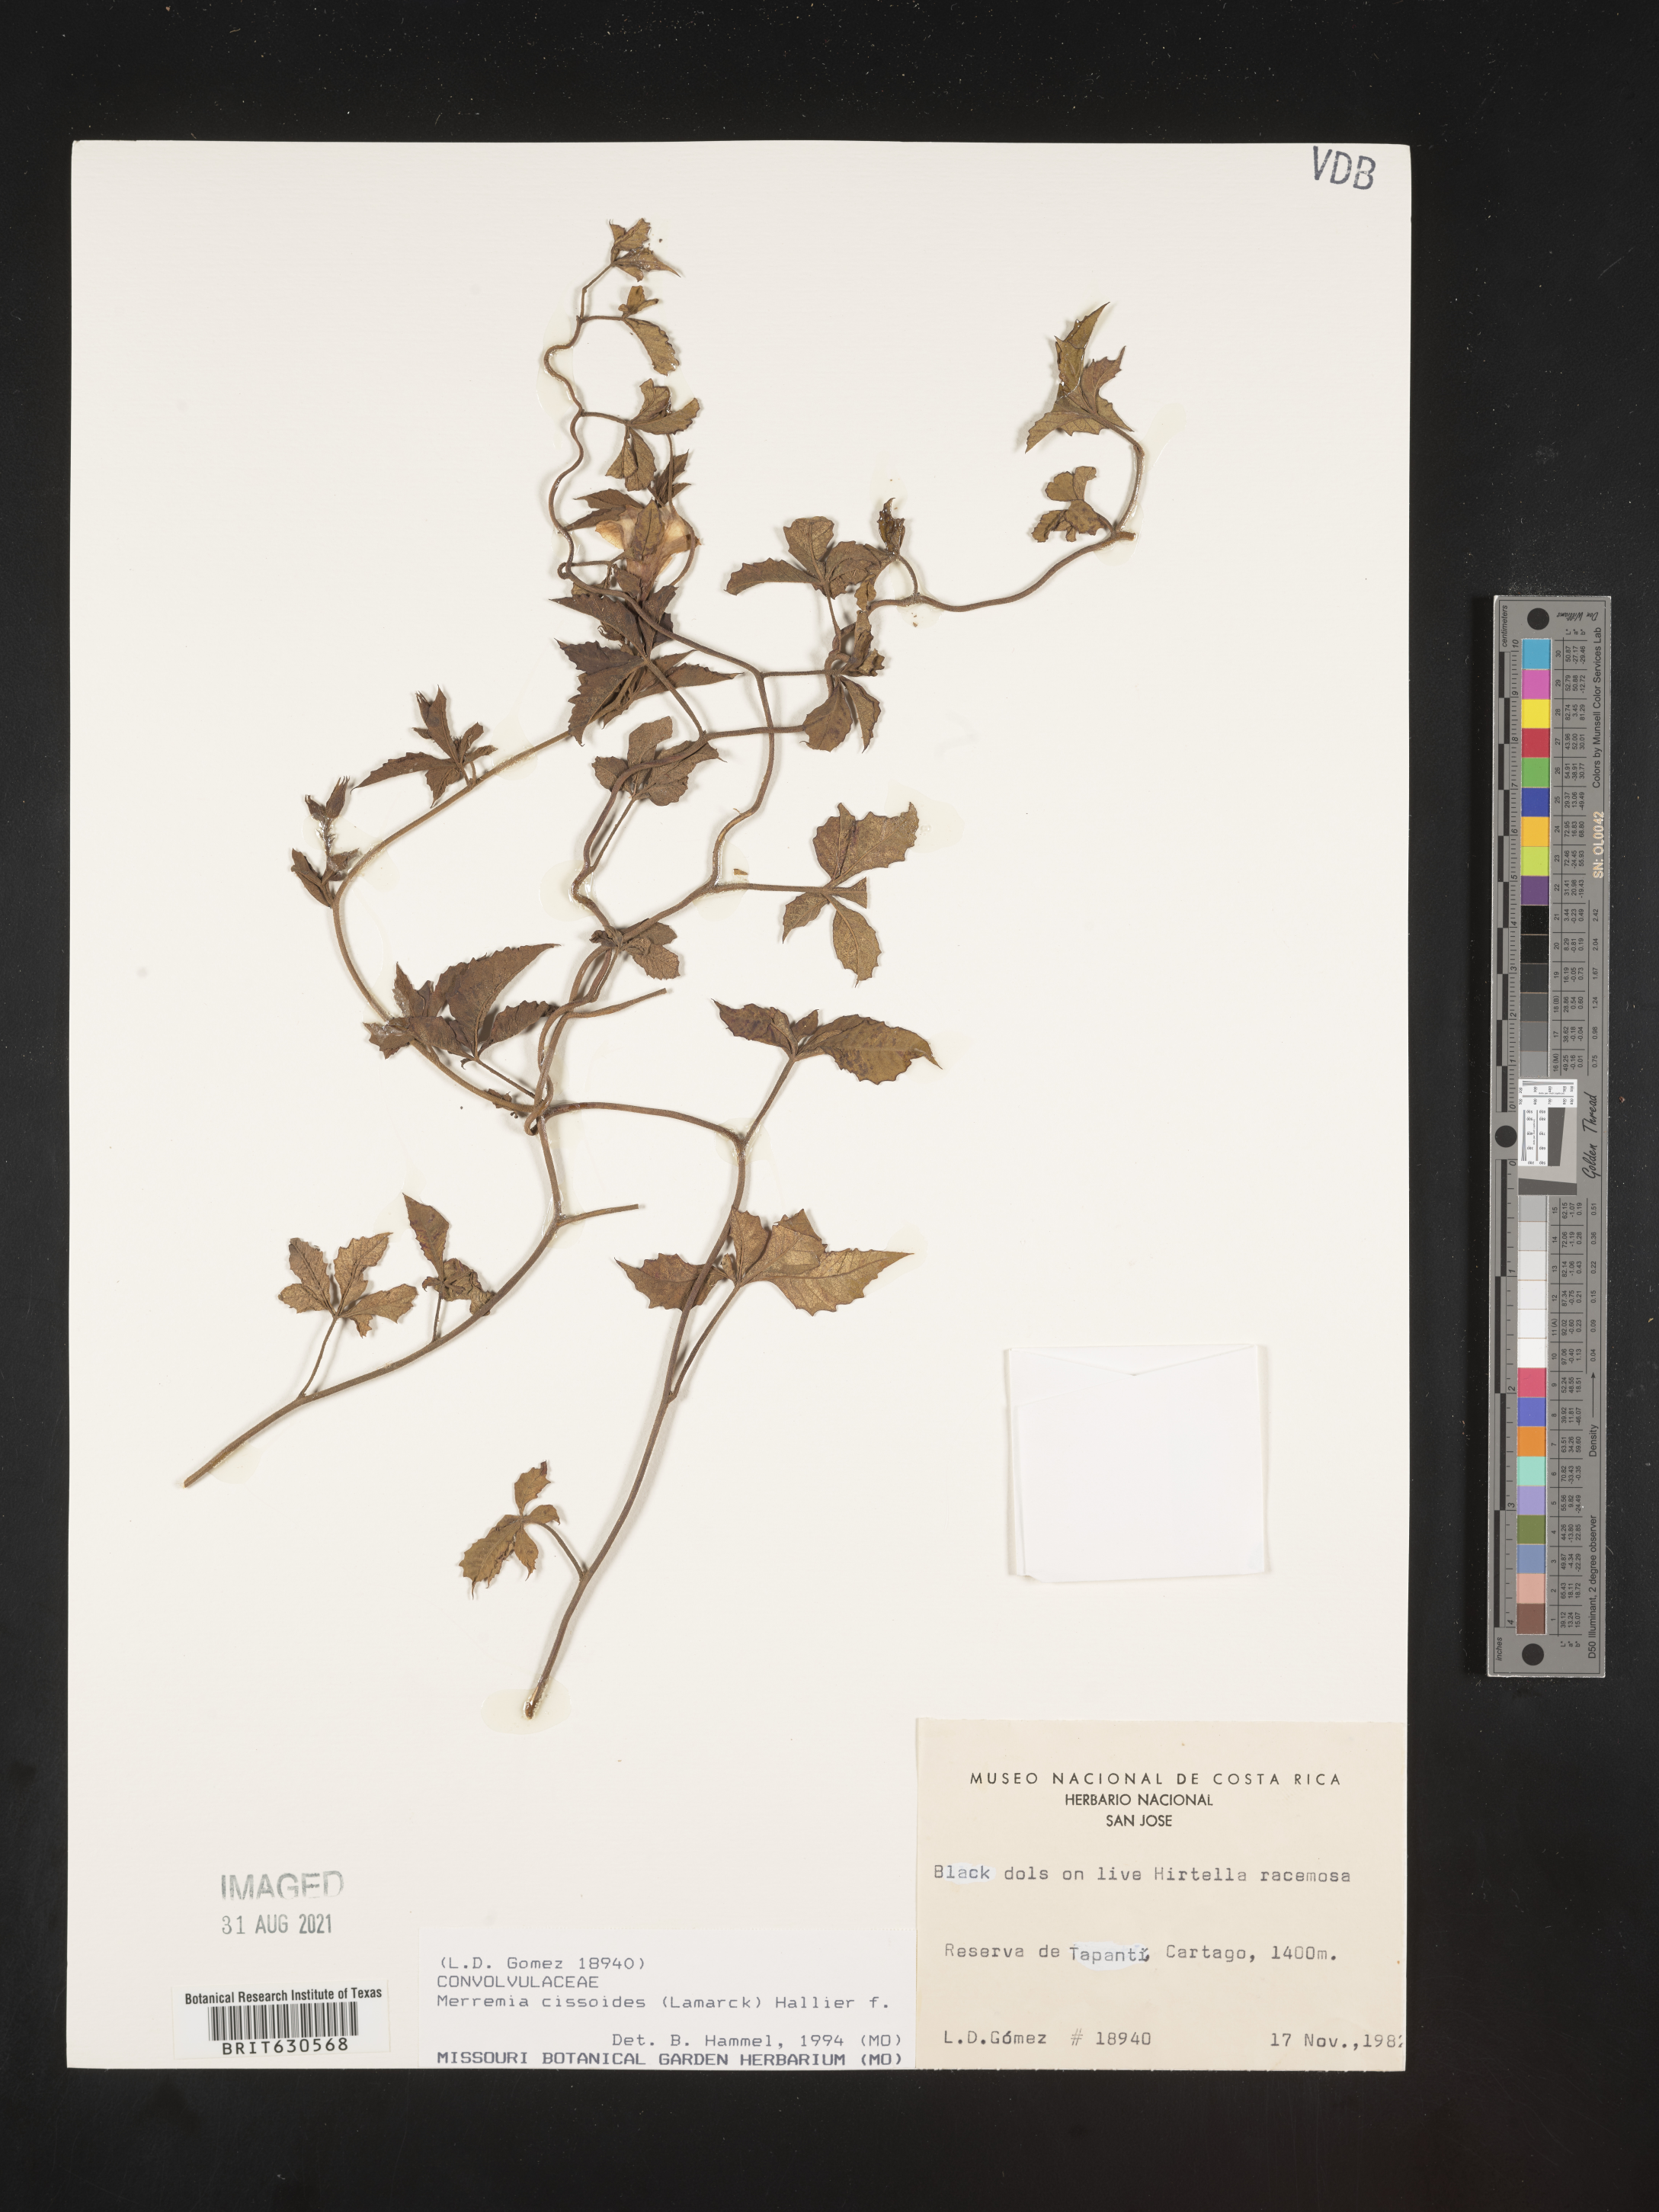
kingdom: Plantae
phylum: Tracheophyta
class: Magnoliopsida
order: Solanales
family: Convolvulaceae
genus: Distimake
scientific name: Distimake cissoides
